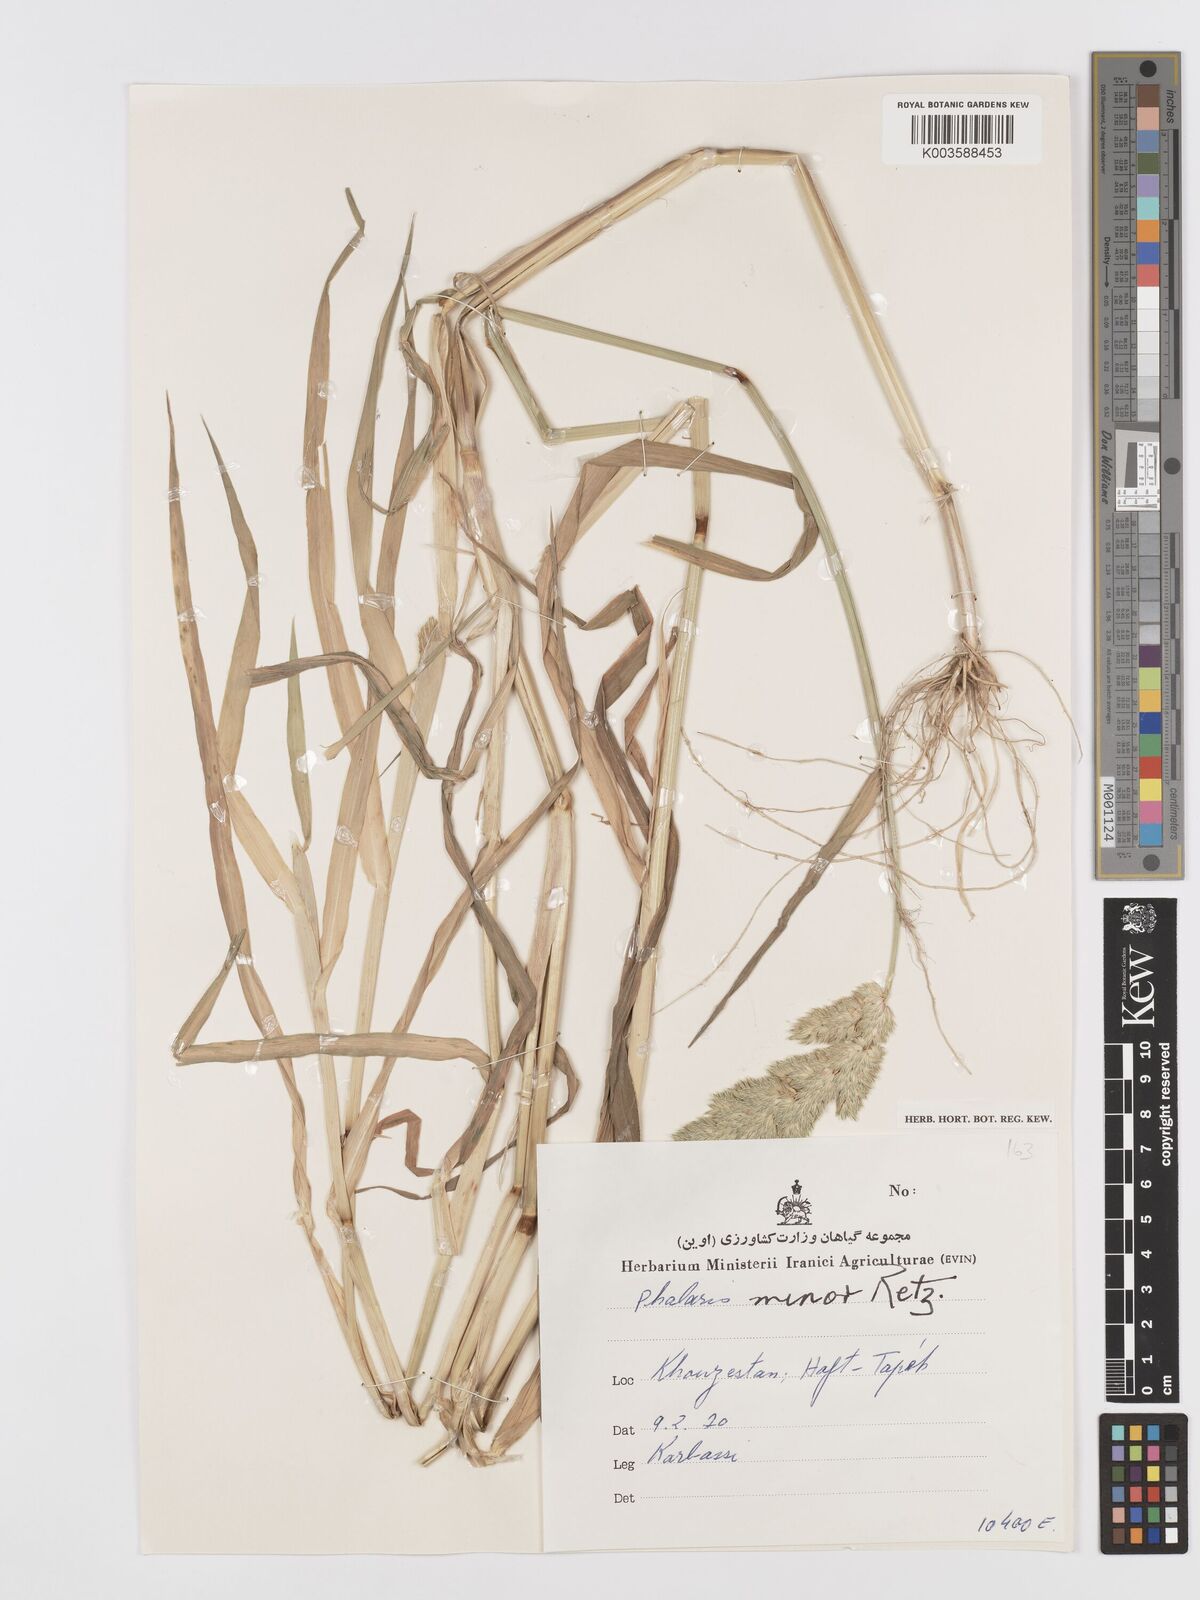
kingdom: Plantae
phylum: Tracheophyta
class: Liliopsida
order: Poales
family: Poaceae
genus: Phalaris
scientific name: Phalaris minor
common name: Littleseed canarygrass
